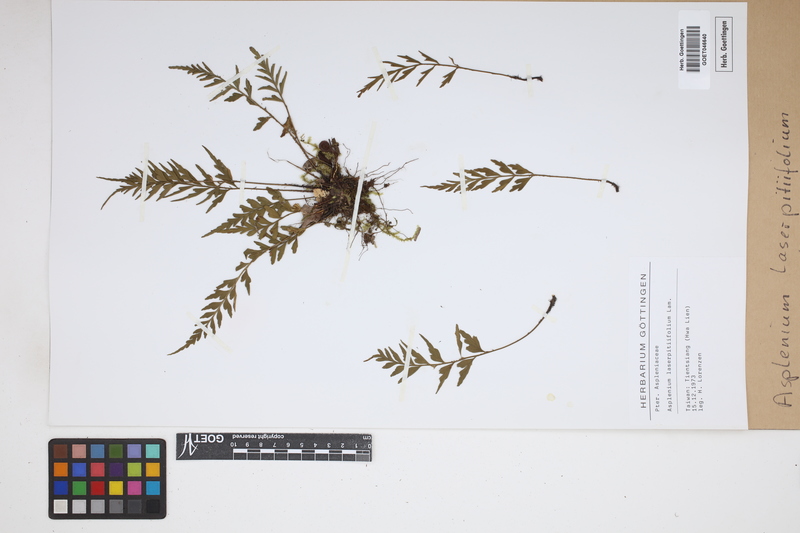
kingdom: Plantae
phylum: Tracheophyta
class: Polypodiopsida
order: Polypodiales
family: Aspleniaceae
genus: Asplenium
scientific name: Asplenium laserpitiifolium
